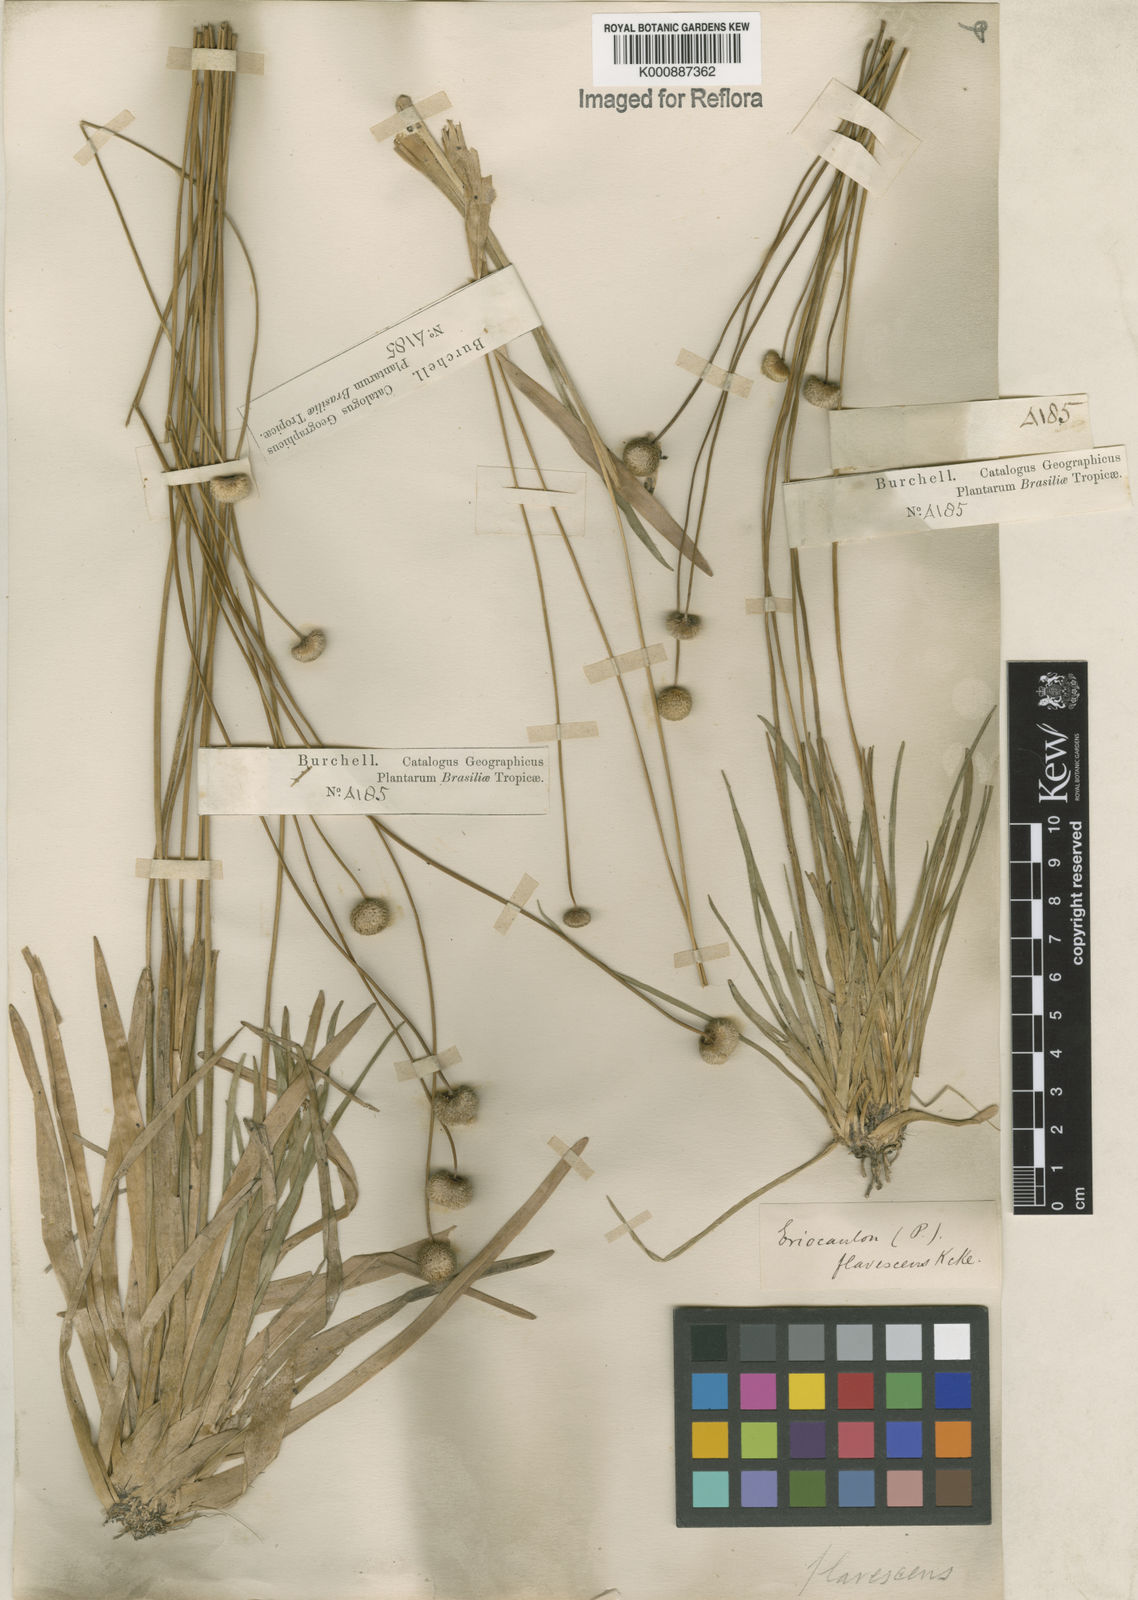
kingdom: Plantae
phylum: Tracheophyta
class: Liliopsida
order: Poales
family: Eriocaulaceae
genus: Leiothrix
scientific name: Leiothrix flavescens
